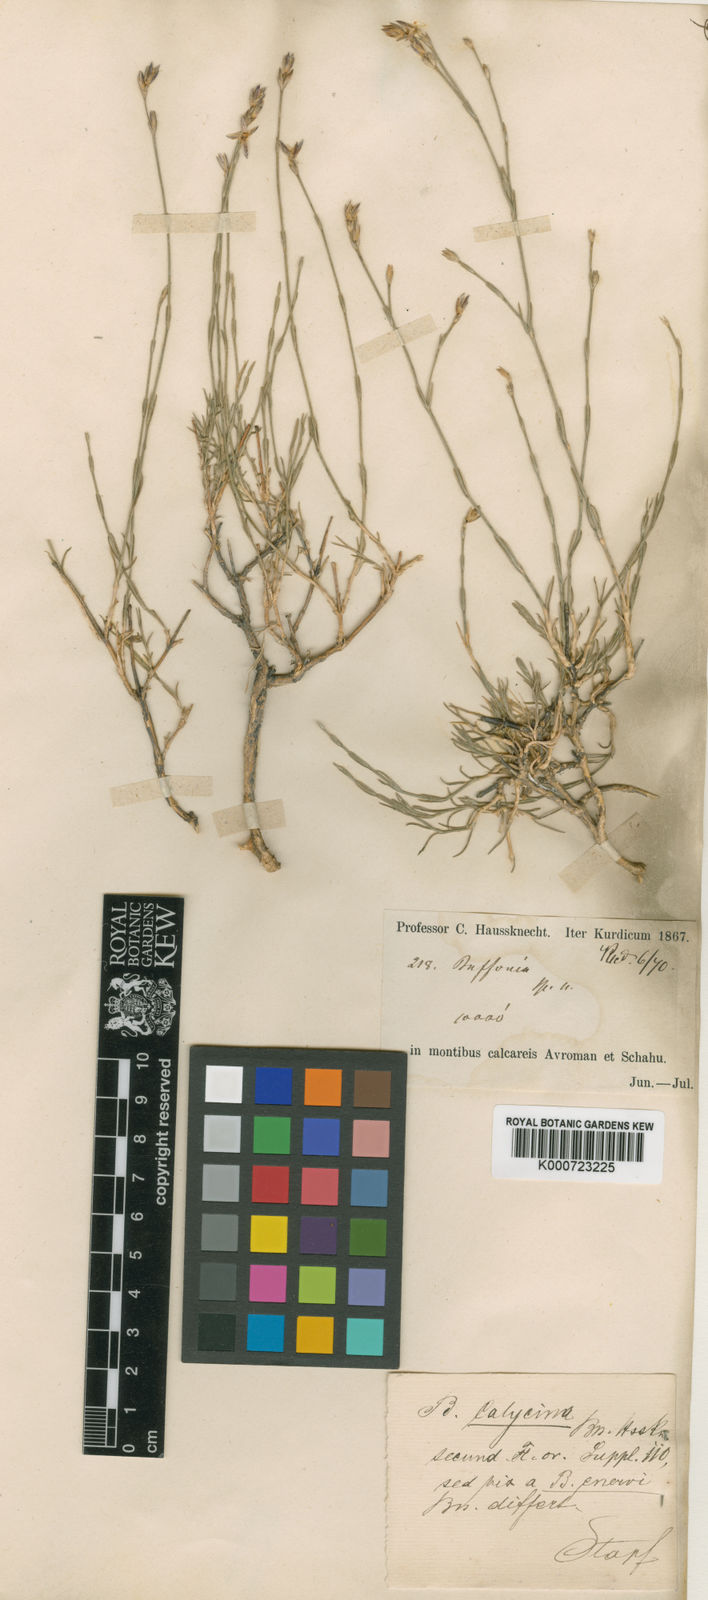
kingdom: Plantae
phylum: Tracheophyta
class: Magnoliopsida
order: Caryophyllales
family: Caryophyllaceae
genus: Bufonia
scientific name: Bufonia kotschyana
